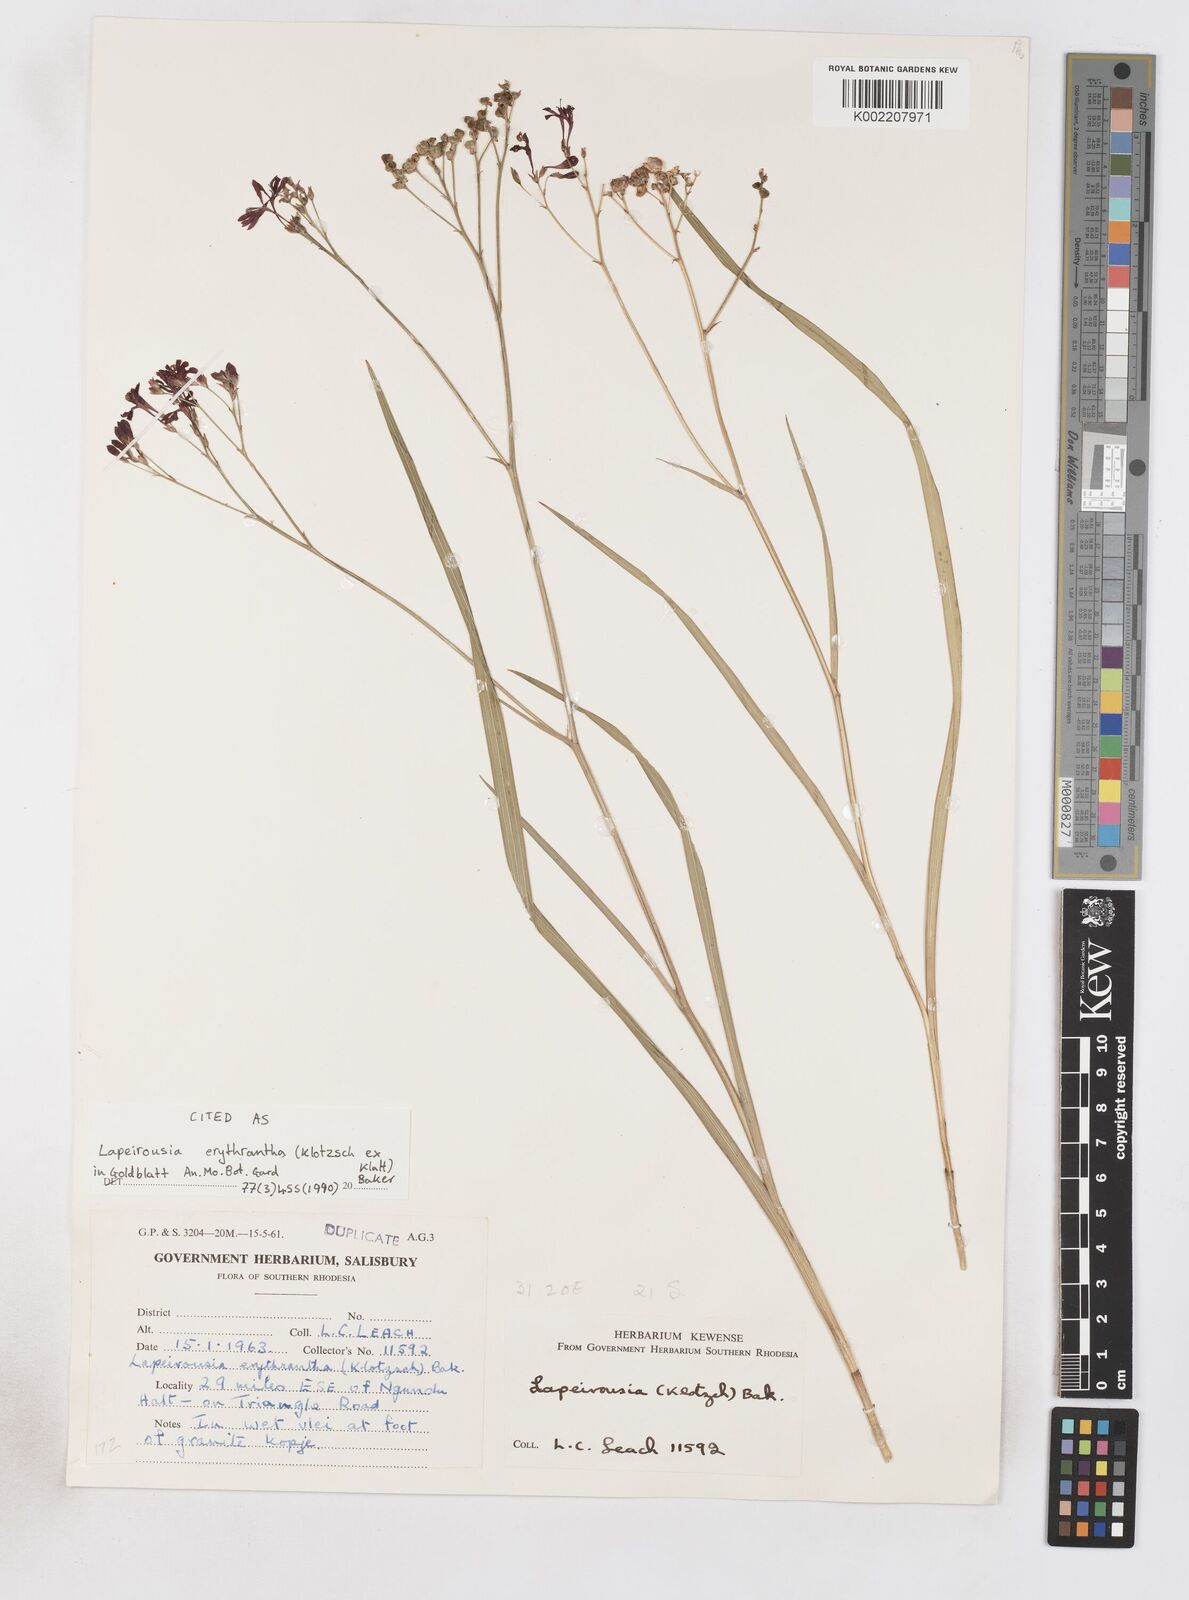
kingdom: Plantae
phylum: Tracheophyta
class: Liliopsida
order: Asparagales
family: Iridaceae
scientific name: Iridaceae
